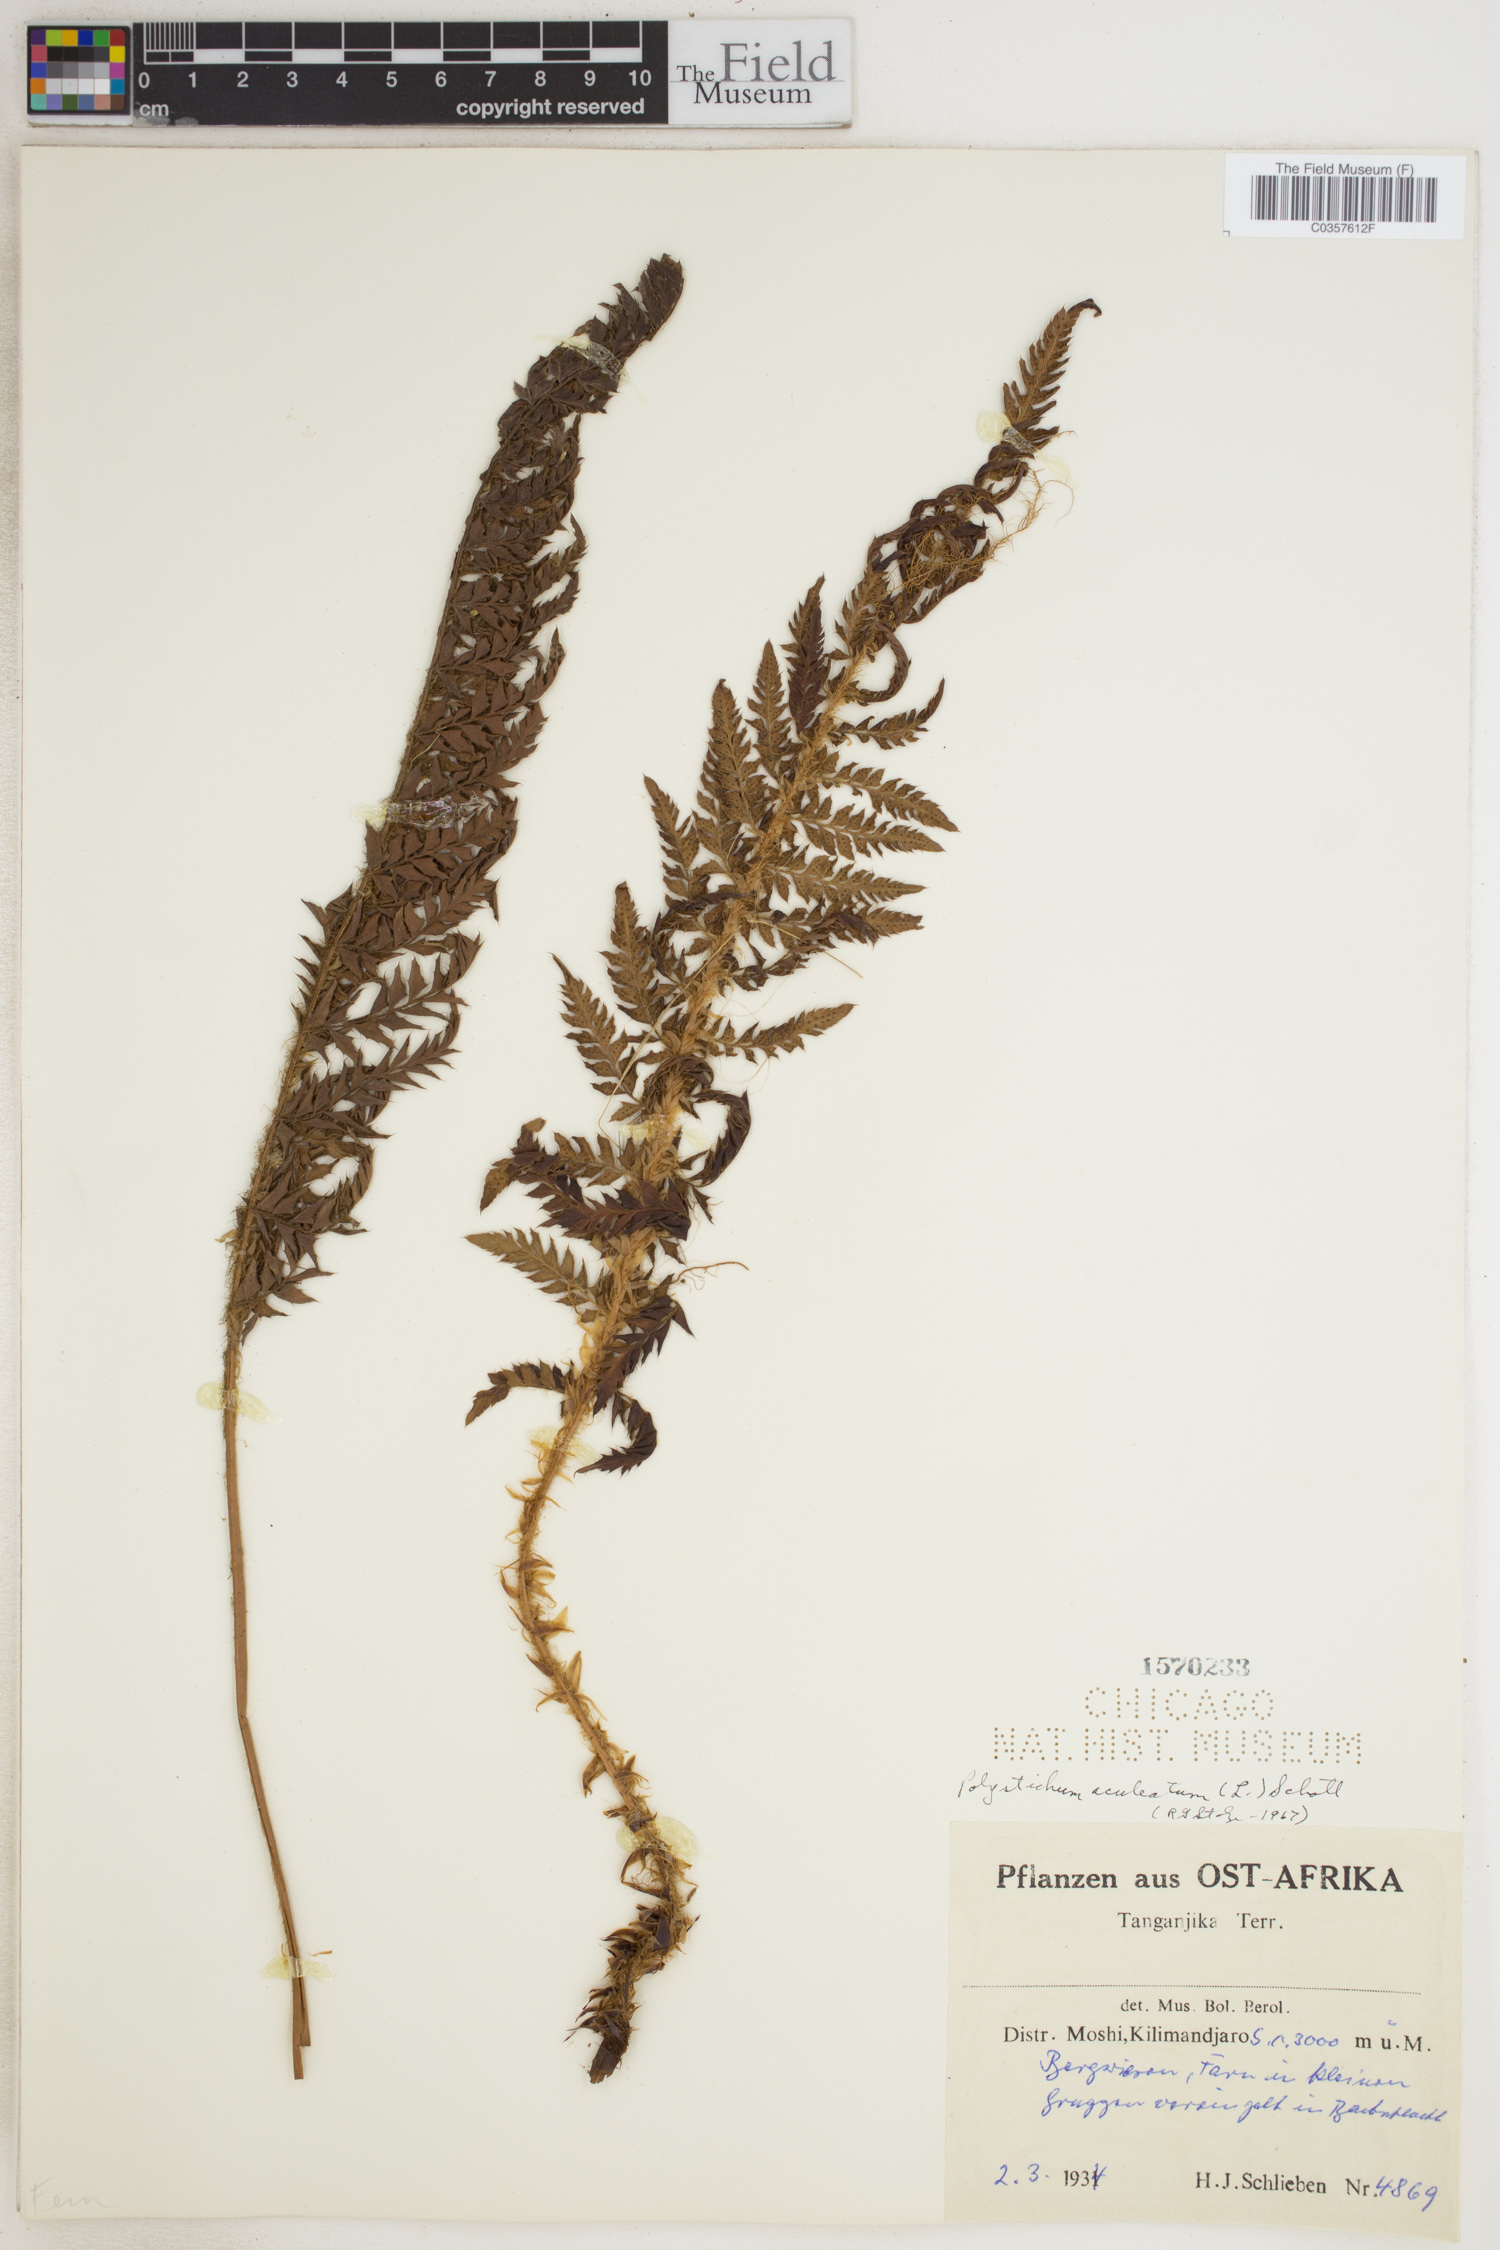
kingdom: Plantae
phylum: Tracheophyta
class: Polypodiopsida
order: Polypodiales
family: Dryopteridaceae
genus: Polystichum
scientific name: Polystichum aculeatum
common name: Hard shield-fern
